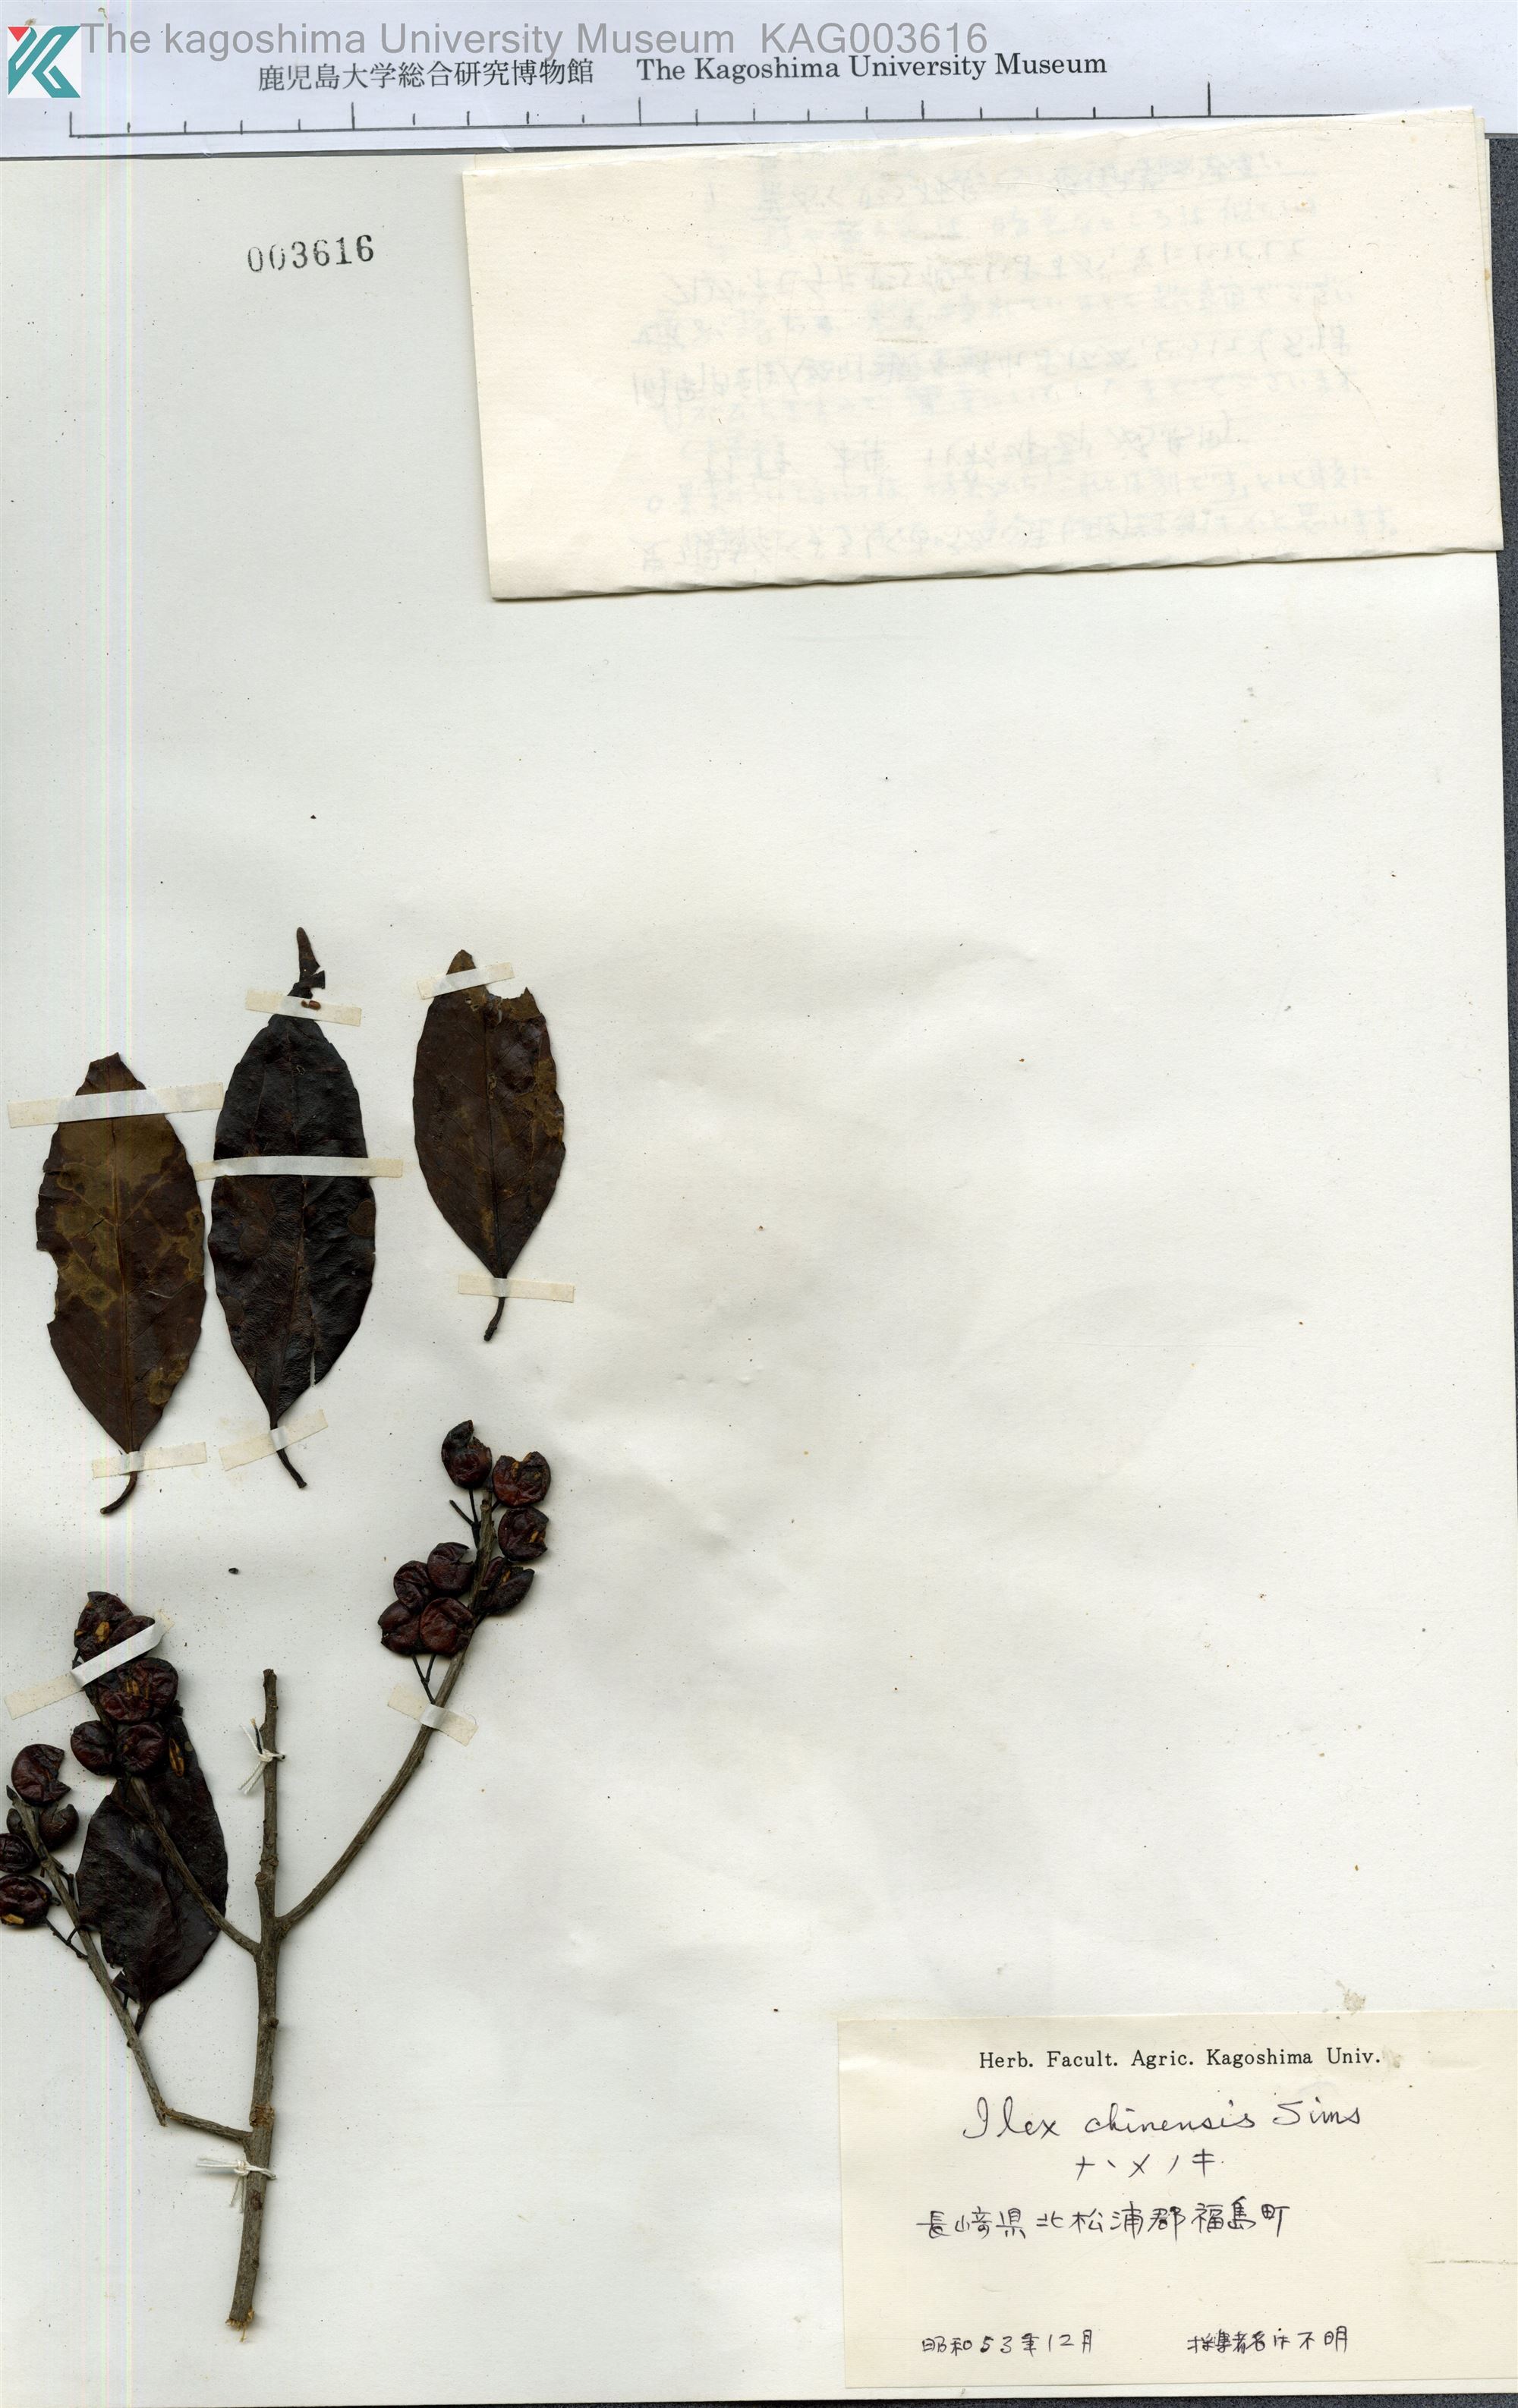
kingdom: Plantae
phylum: Tracheophyta
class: Magnoliopsida
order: Aquifoliales
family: Aquifoliaceae
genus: Ilex
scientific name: Ilex chinensis
